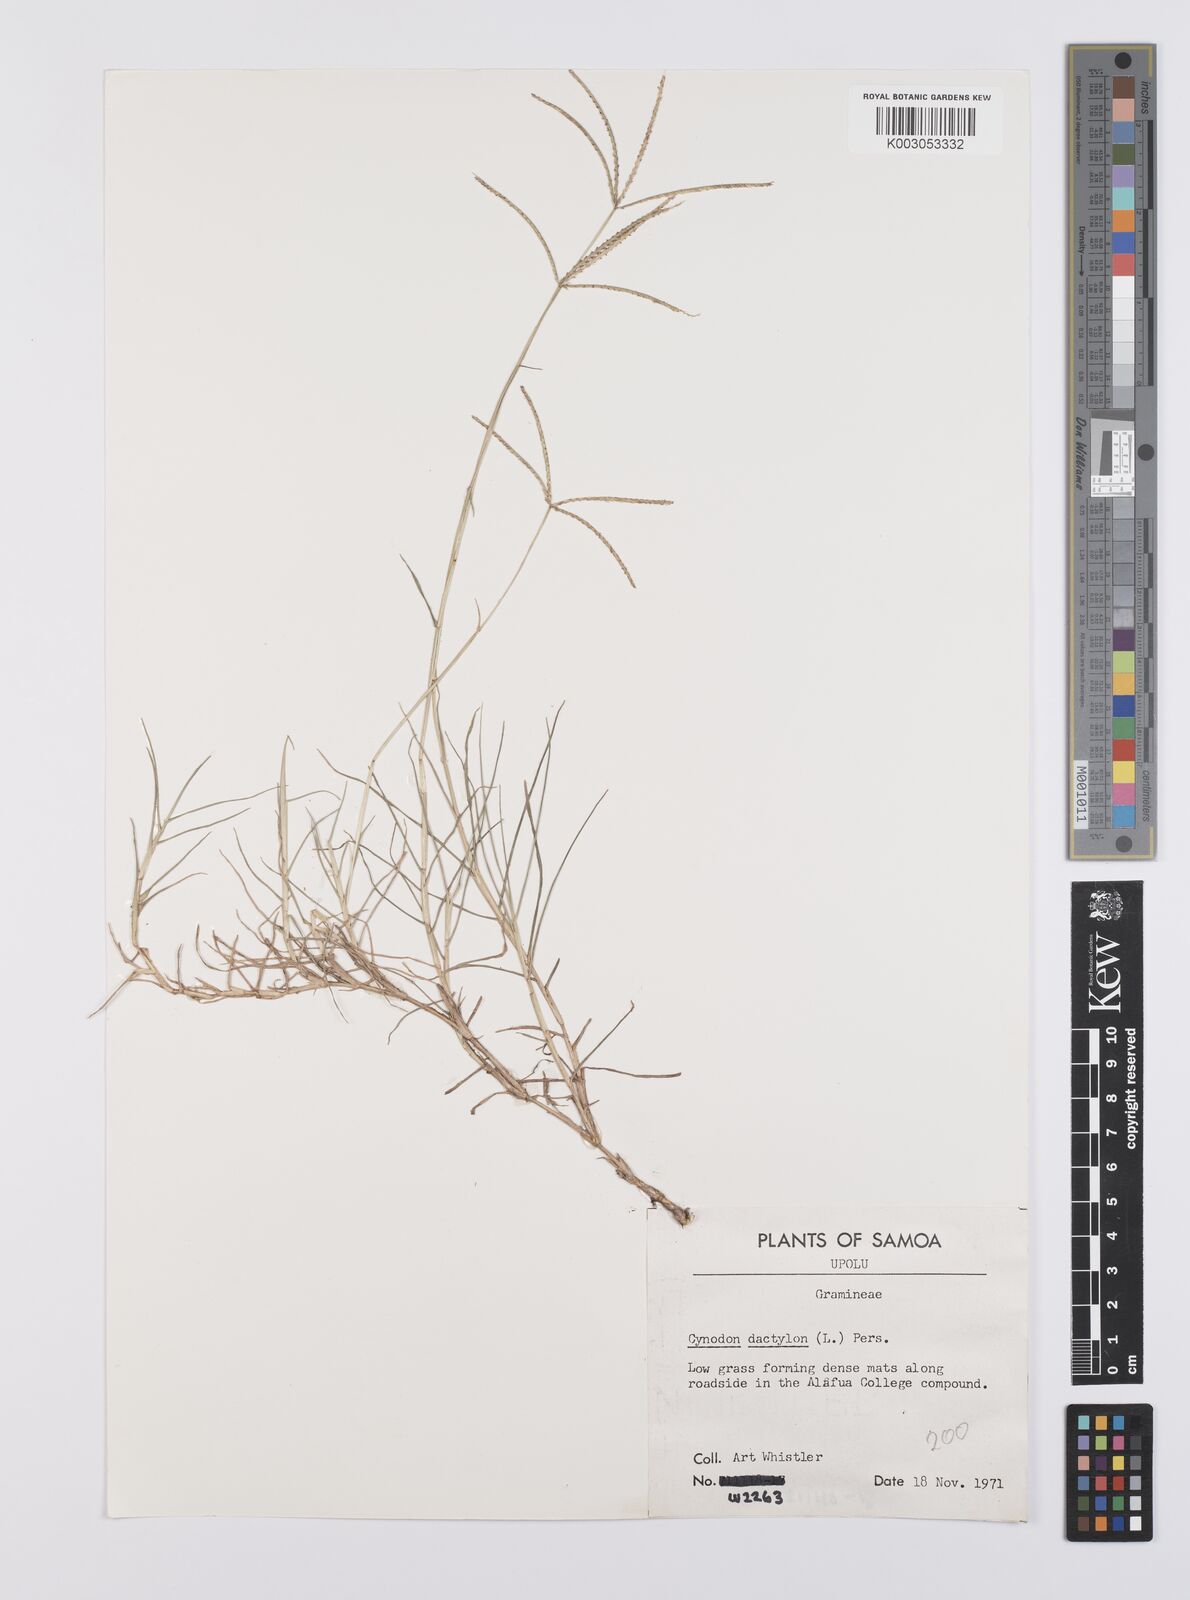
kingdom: Plantae
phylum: Tracheophyta
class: Liliopsida
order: Poales
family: Poaceae
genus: Cynodon
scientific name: Cynodon dactylon
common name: Bermuda grass
